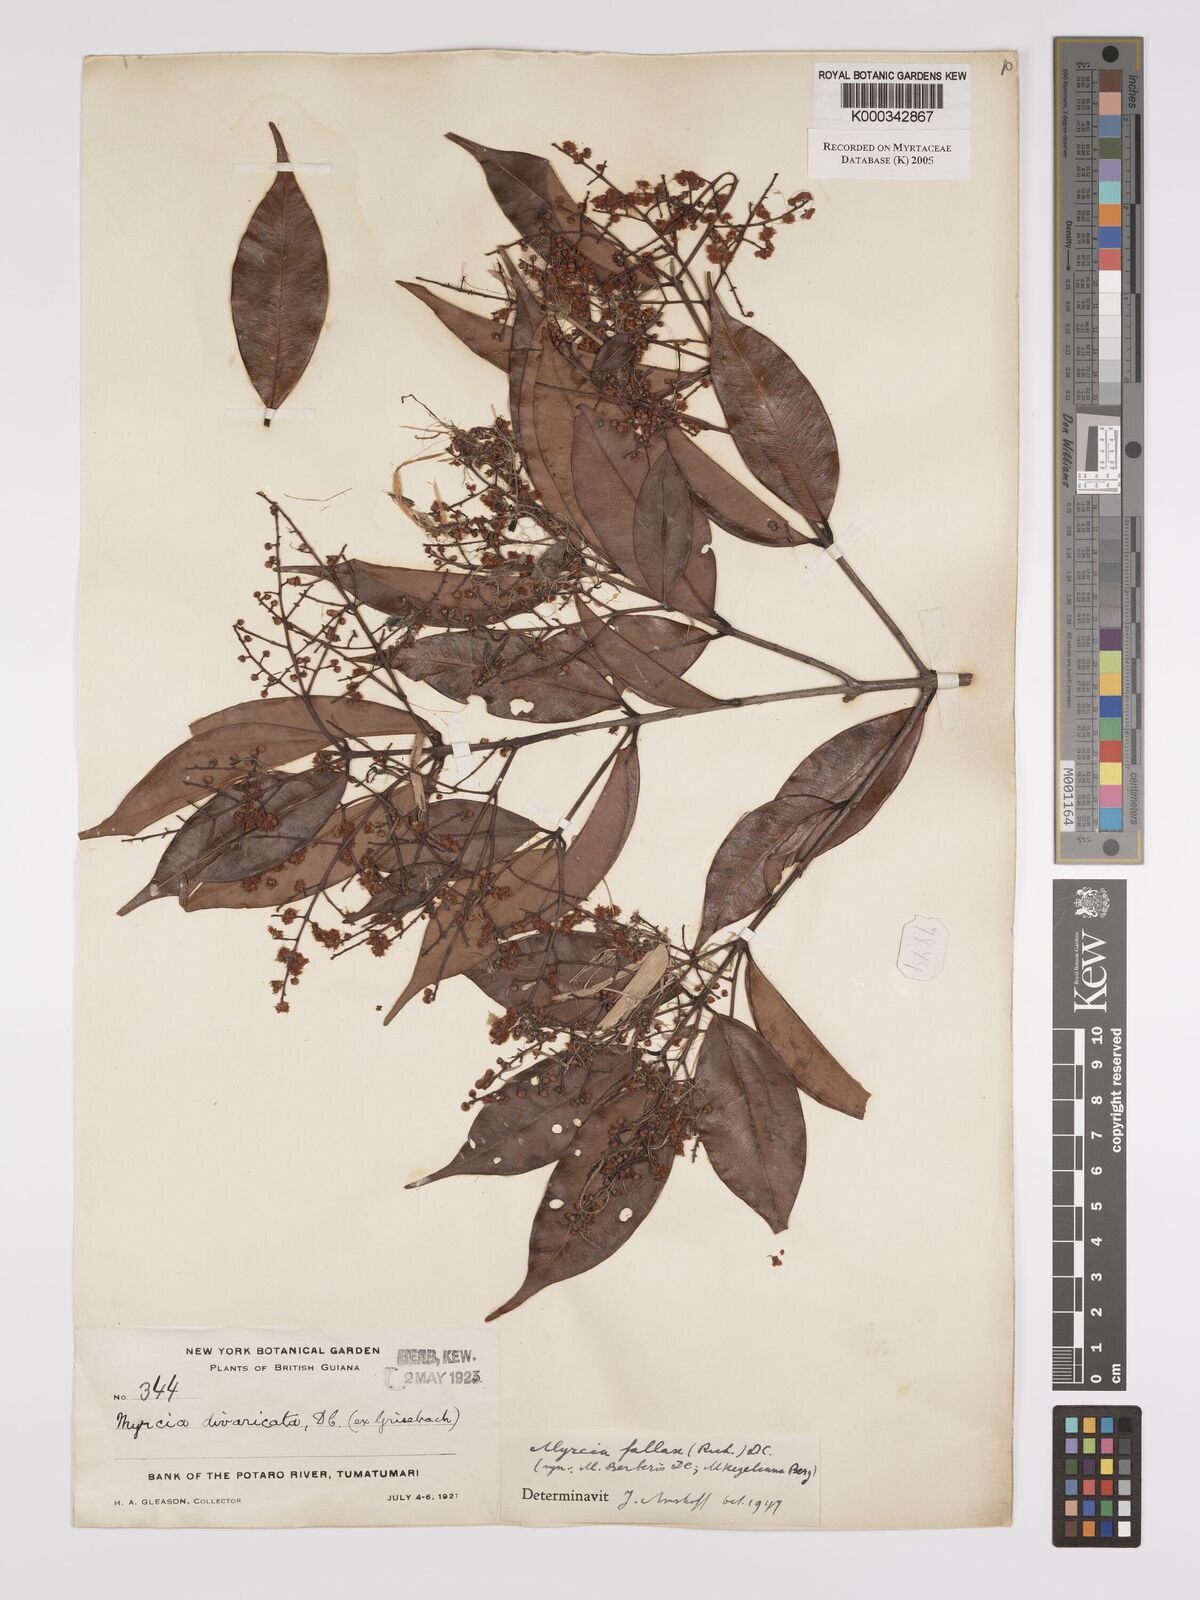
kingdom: Plantae
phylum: Tracheophyta
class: Magnoliopsida
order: Myrtales
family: Myrtaceae
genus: Myrcia
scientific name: Myrcia splendens
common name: Surinam cherry
